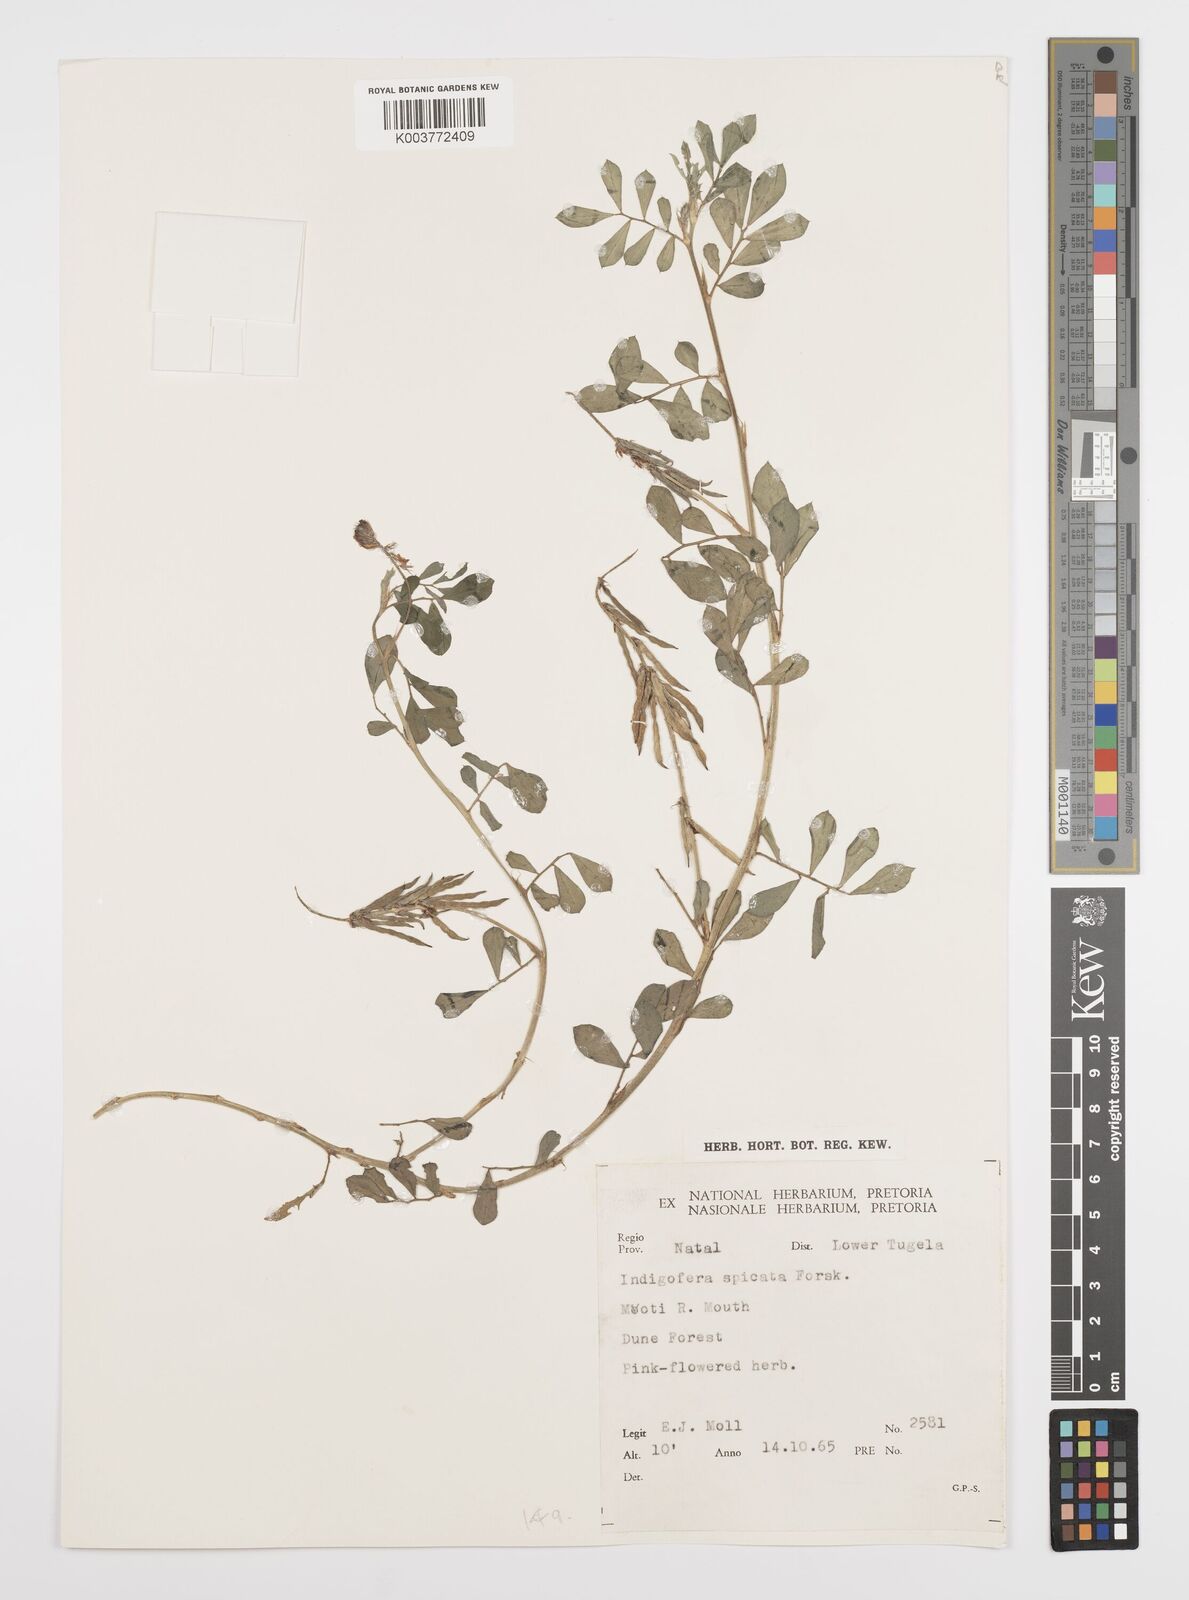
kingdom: Plantae
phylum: Tracheophyta
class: Magnoliopsida
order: Fabales
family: Fabaceae
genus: Indigofera
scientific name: Indigofera spicata
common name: Creeping indigo
